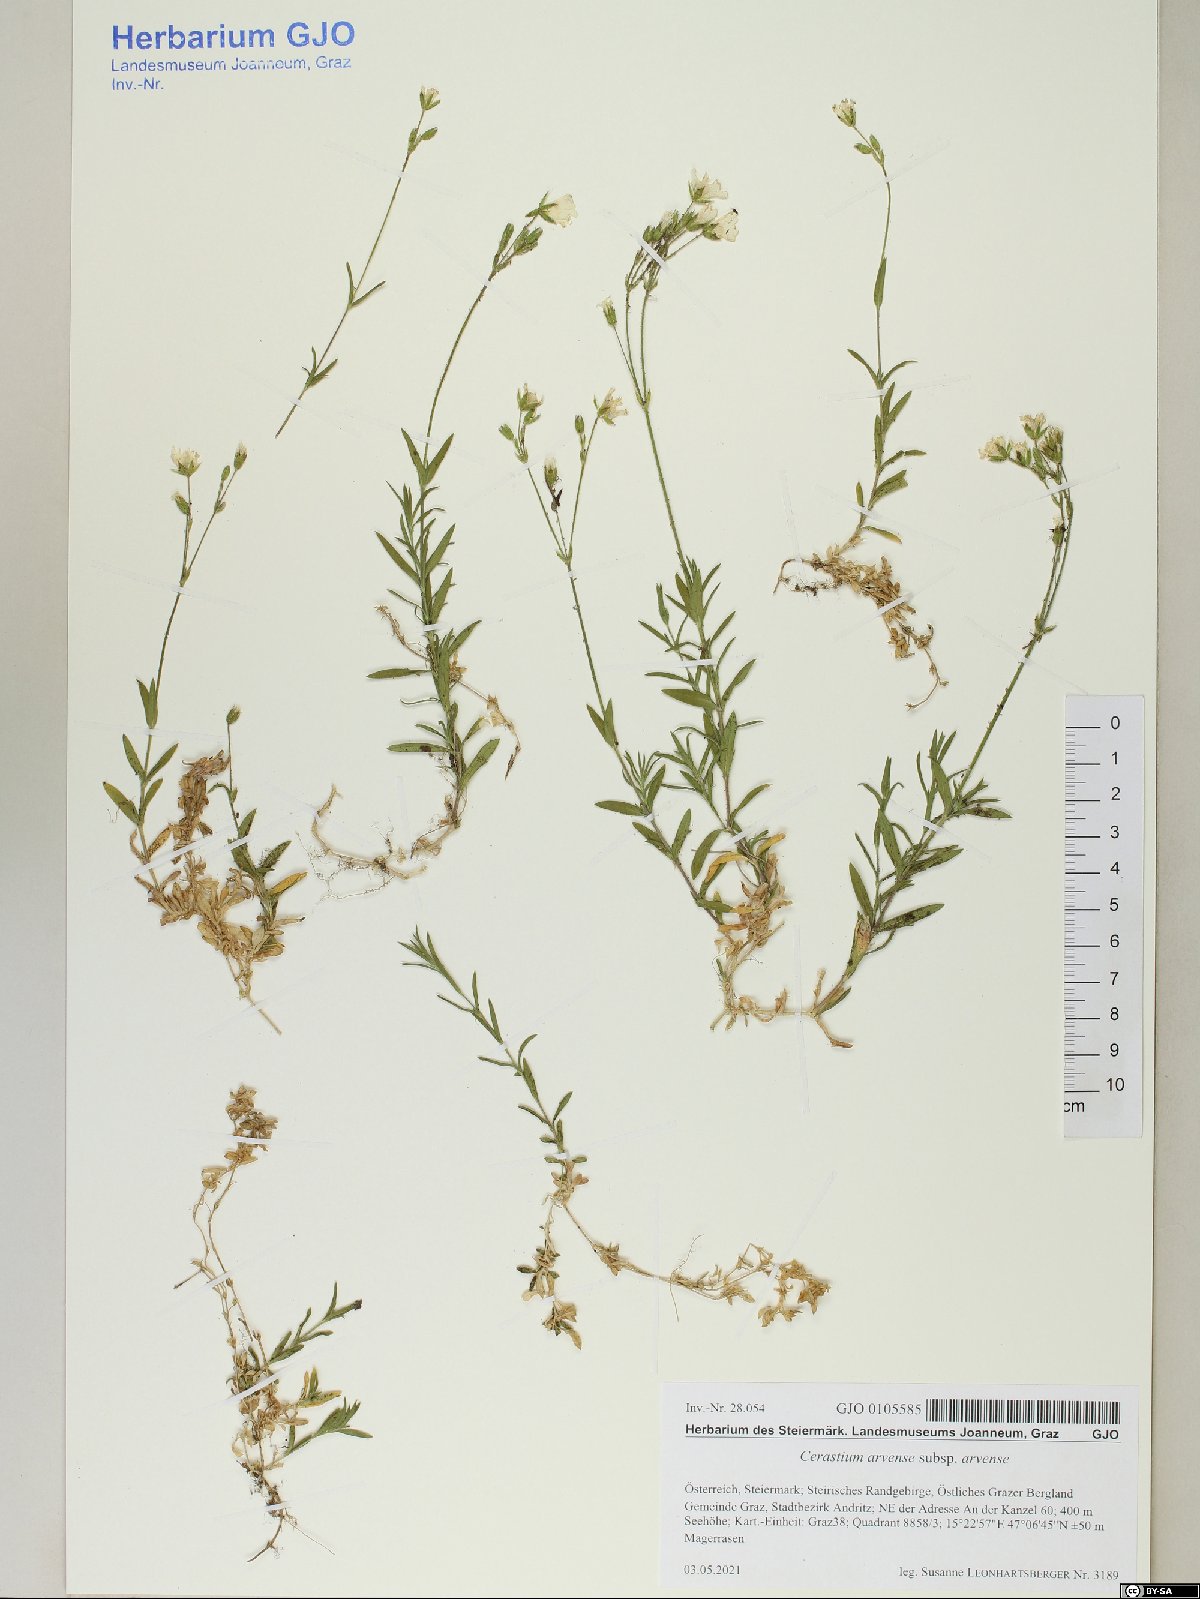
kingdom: Plantae
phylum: Tracheophyta
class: Magnoliopsida
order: Caryophyllales
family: Caryophyllaceae
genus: Cerastium
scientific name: Cerastium arvense
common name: Field mouse-ear
